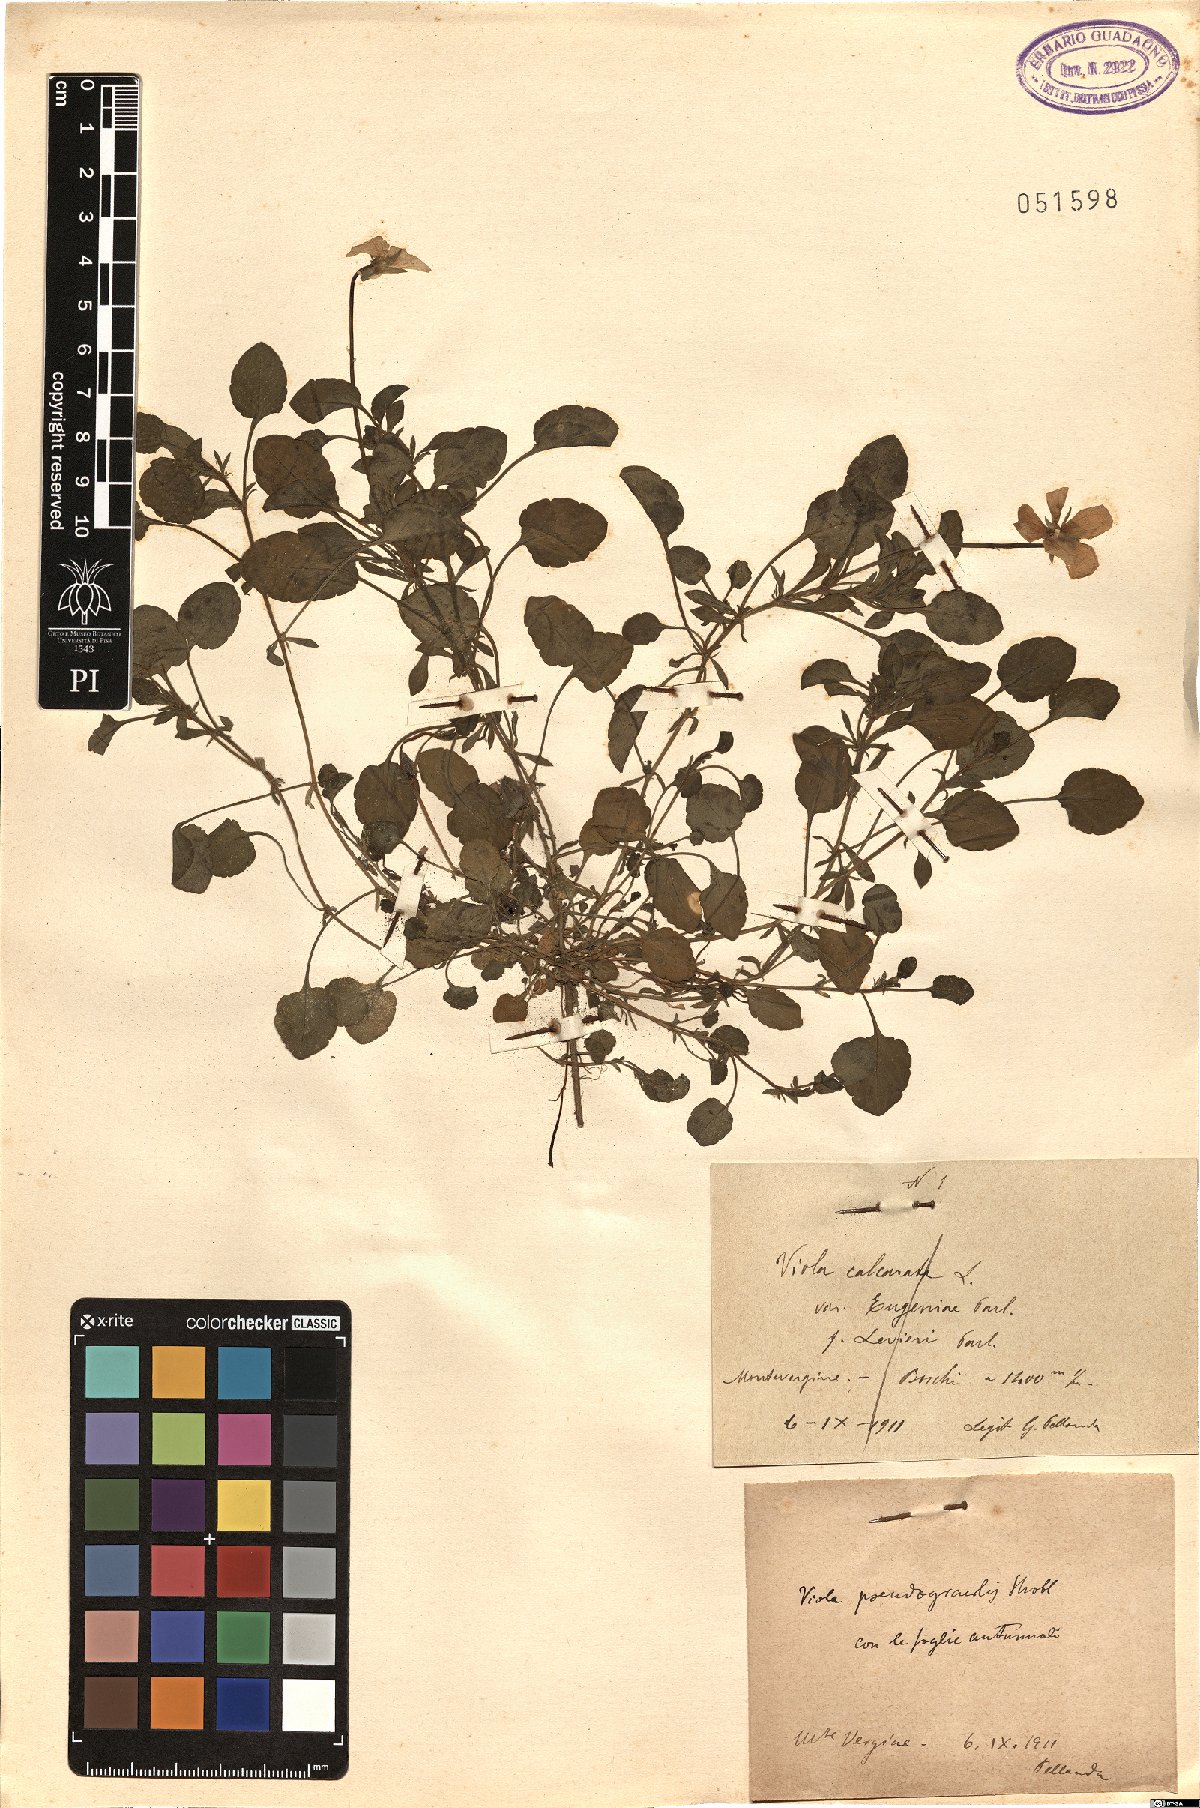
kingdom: Plantae
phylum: Tracheophyta
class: Magnoliopsida
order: Malpighiales
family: Violaceae
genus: Viola
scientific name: Viola pseudogracilis
